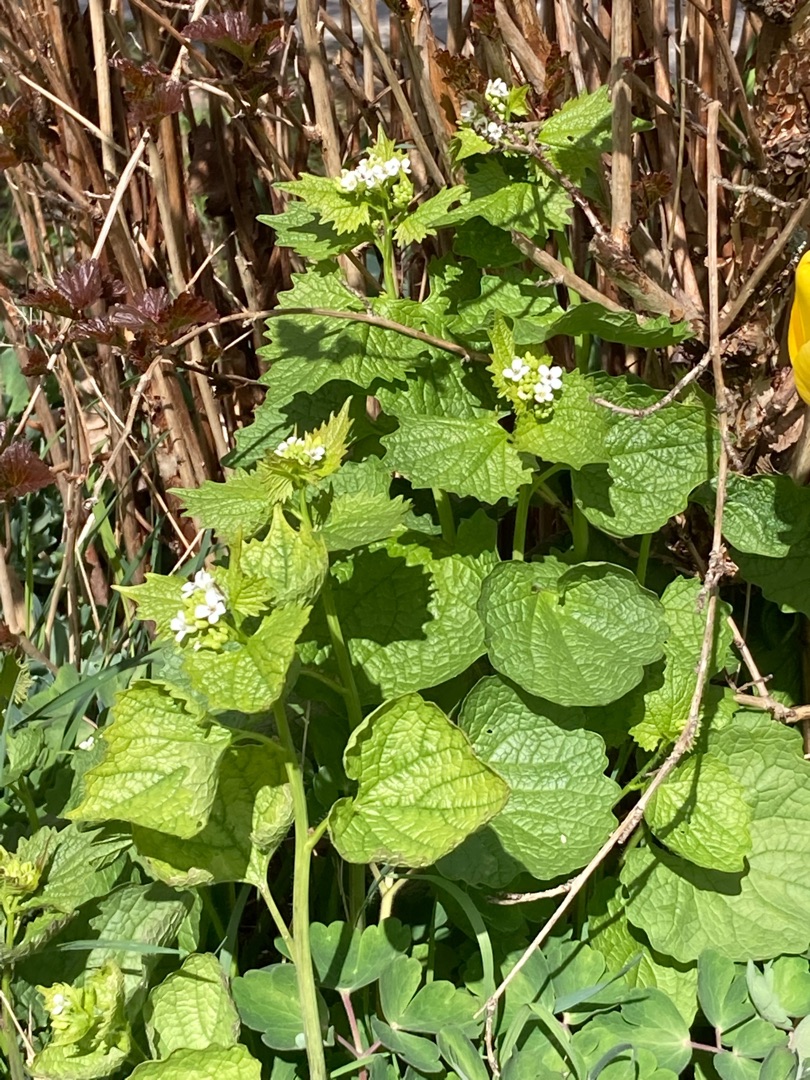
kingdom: Plantae
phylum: Tracheophyta
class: Magnoliopsida
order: Brassicales
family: Brassicaceae
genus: Alliaria
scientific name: Alliaria petiolata
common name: Løgkarse
